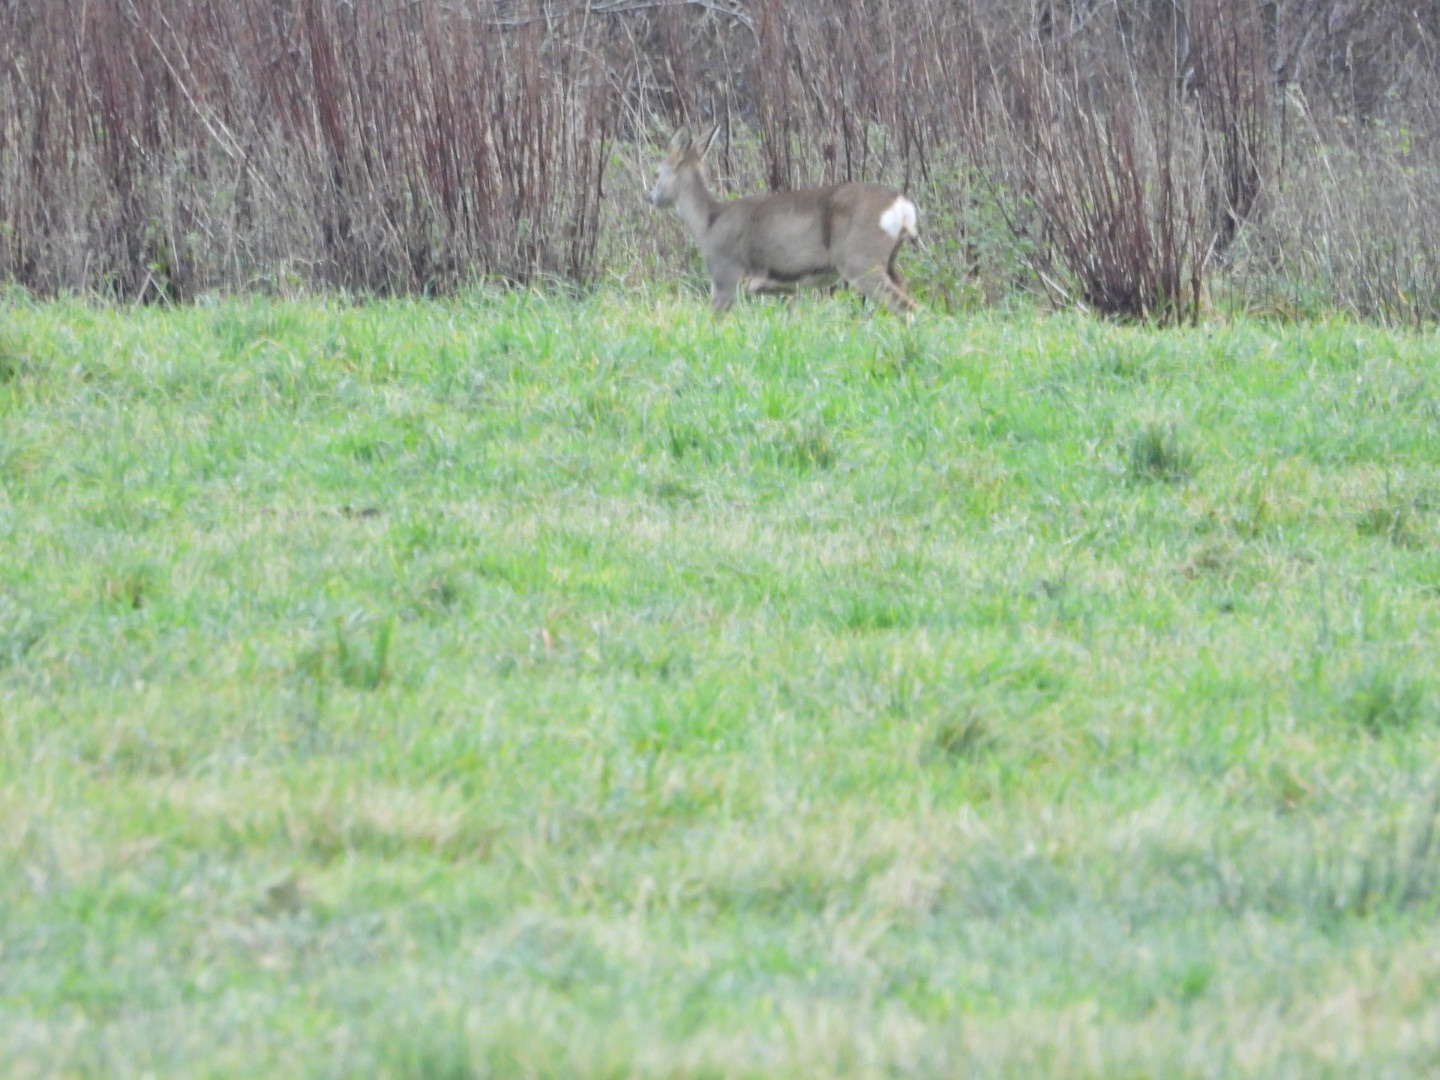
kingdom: Animalia
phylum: Chordata
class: Mammalia
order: Artiodactyla
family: Cervidae
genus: Capreolus
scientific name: Capreolus capreolus
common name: Rådyr
